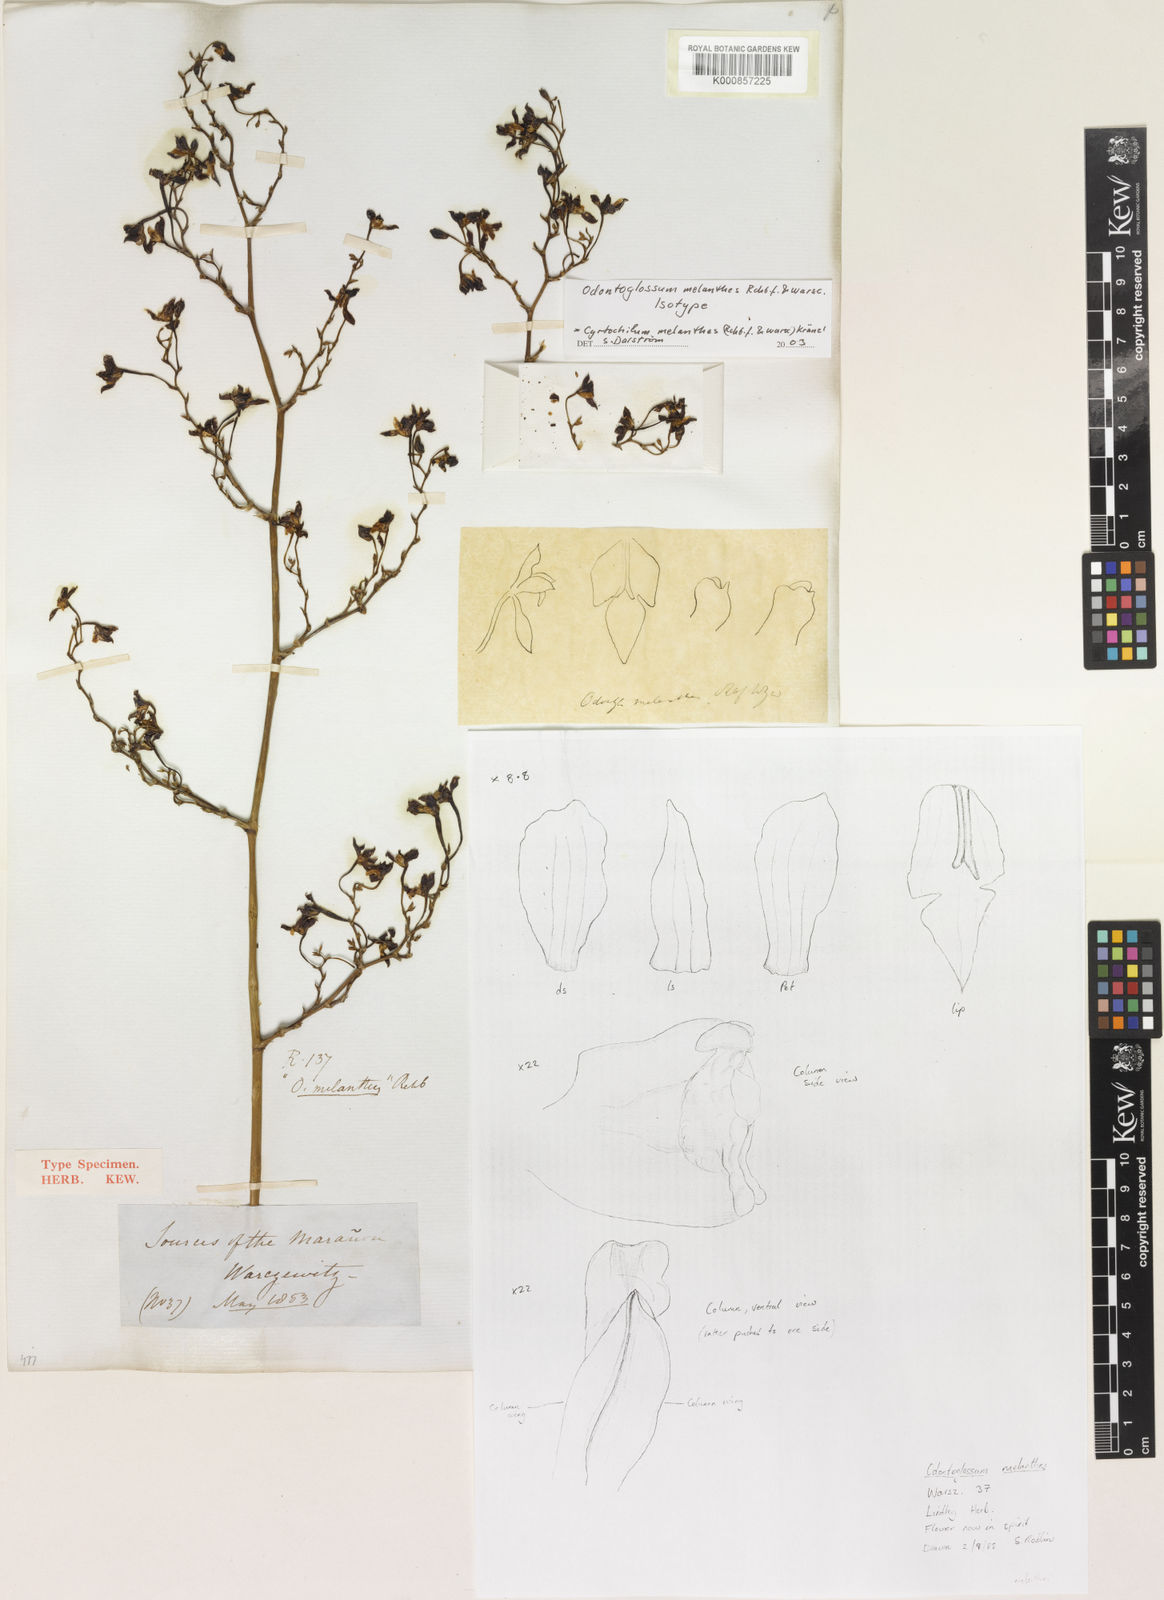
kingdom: Plantae
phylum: Tracheophyta
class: Liliopsida
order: Asparagales
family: Orchidaceae
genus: Cyrtochilum
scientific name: Cyrtochilum melanthes
